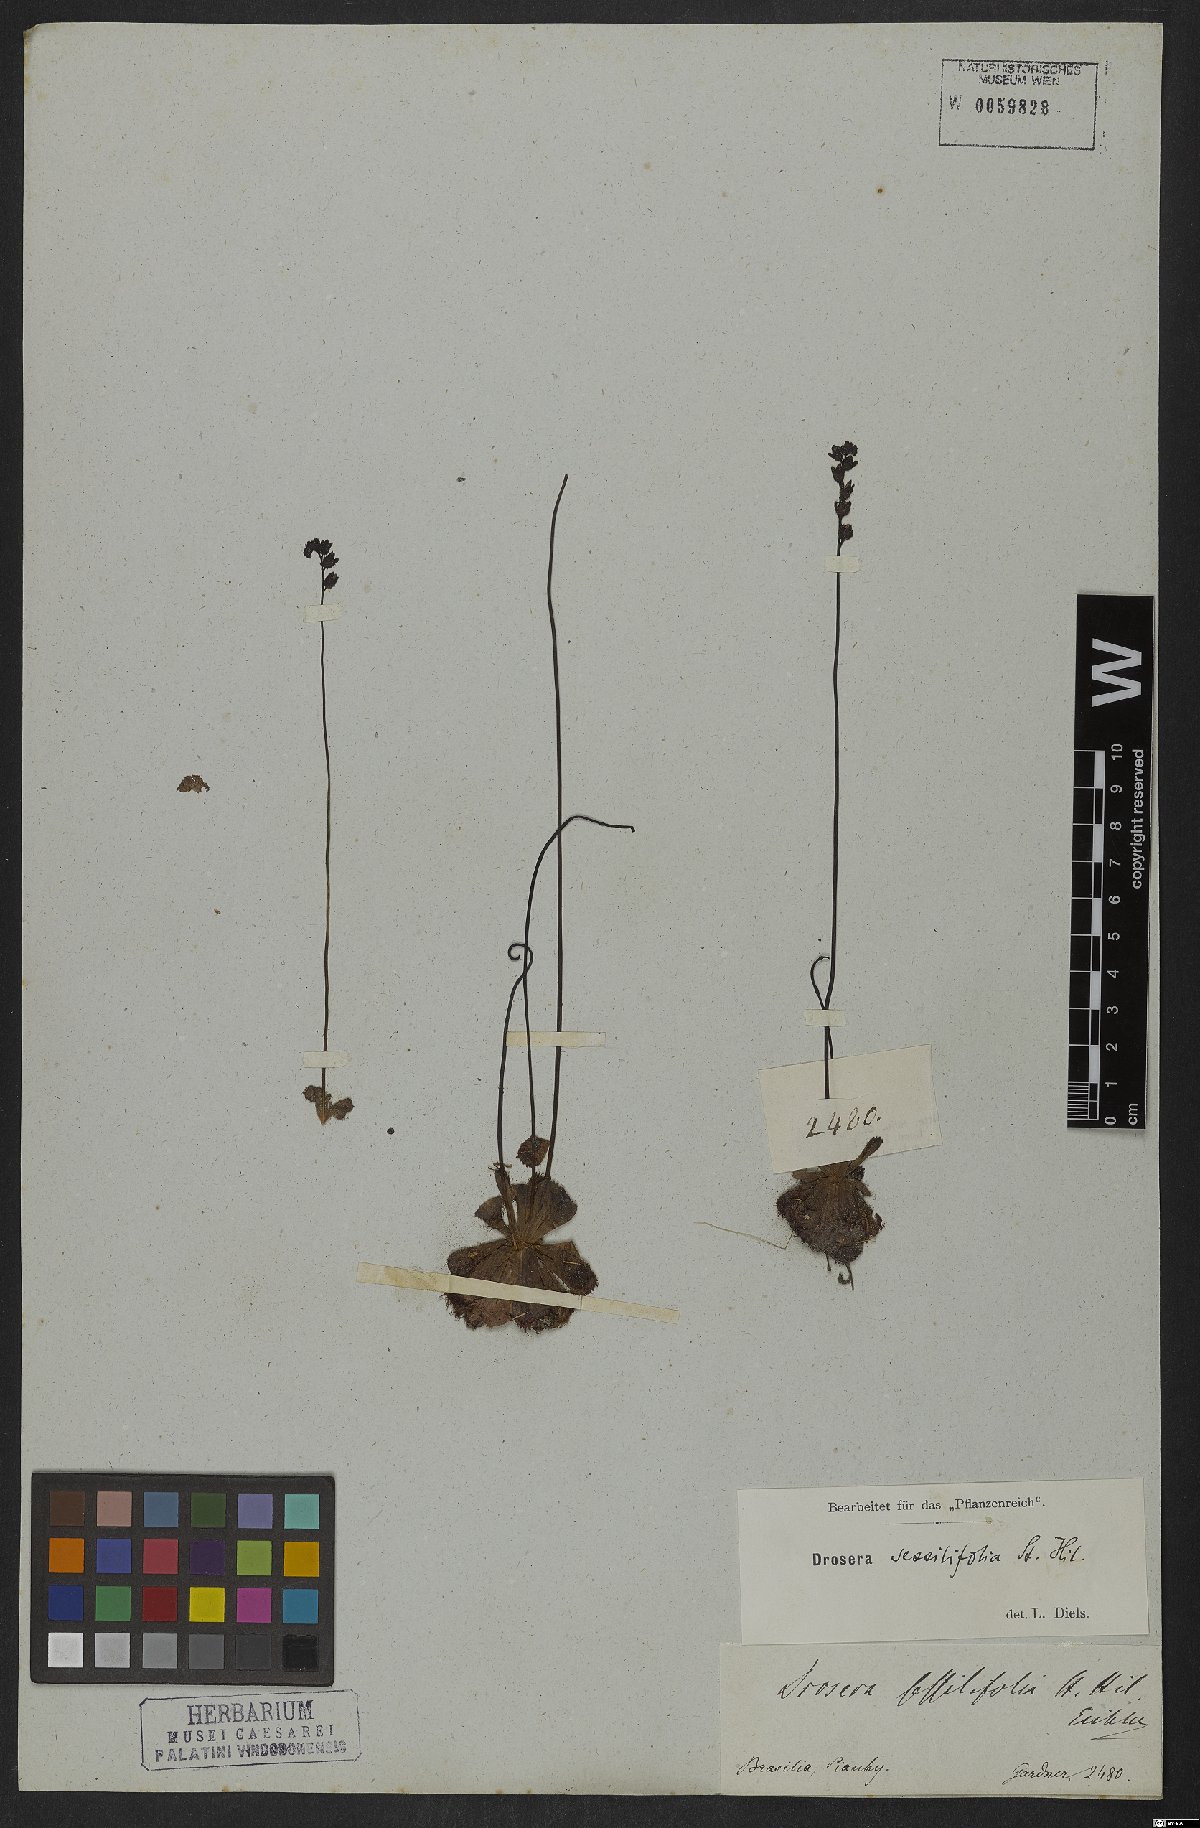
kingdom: Plantae
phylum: Tracheophyta
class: Magnoliopsida
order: Caryophyllales
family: Droseraceae
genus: Drosera
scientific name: Drosera sessilifolia
